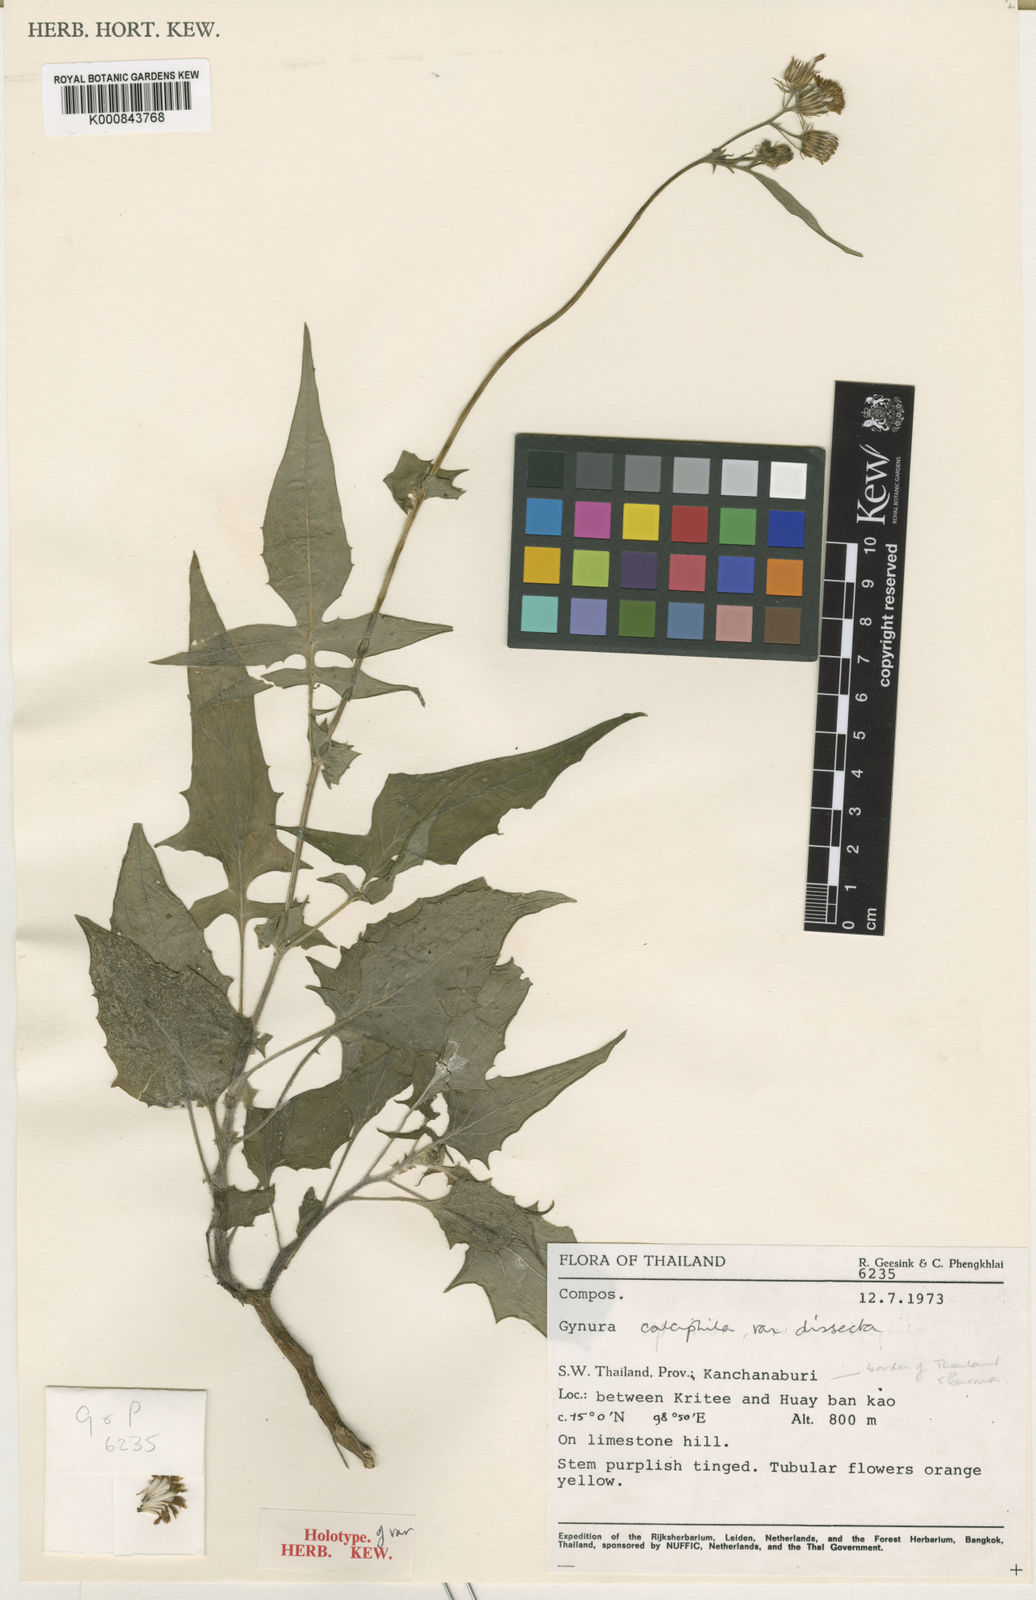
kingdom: Plantae
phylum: Tracheophyta
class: Magnoliopsida
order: Asterales
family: Asteraceae
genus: Gynura
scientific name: Gynura dissecta
